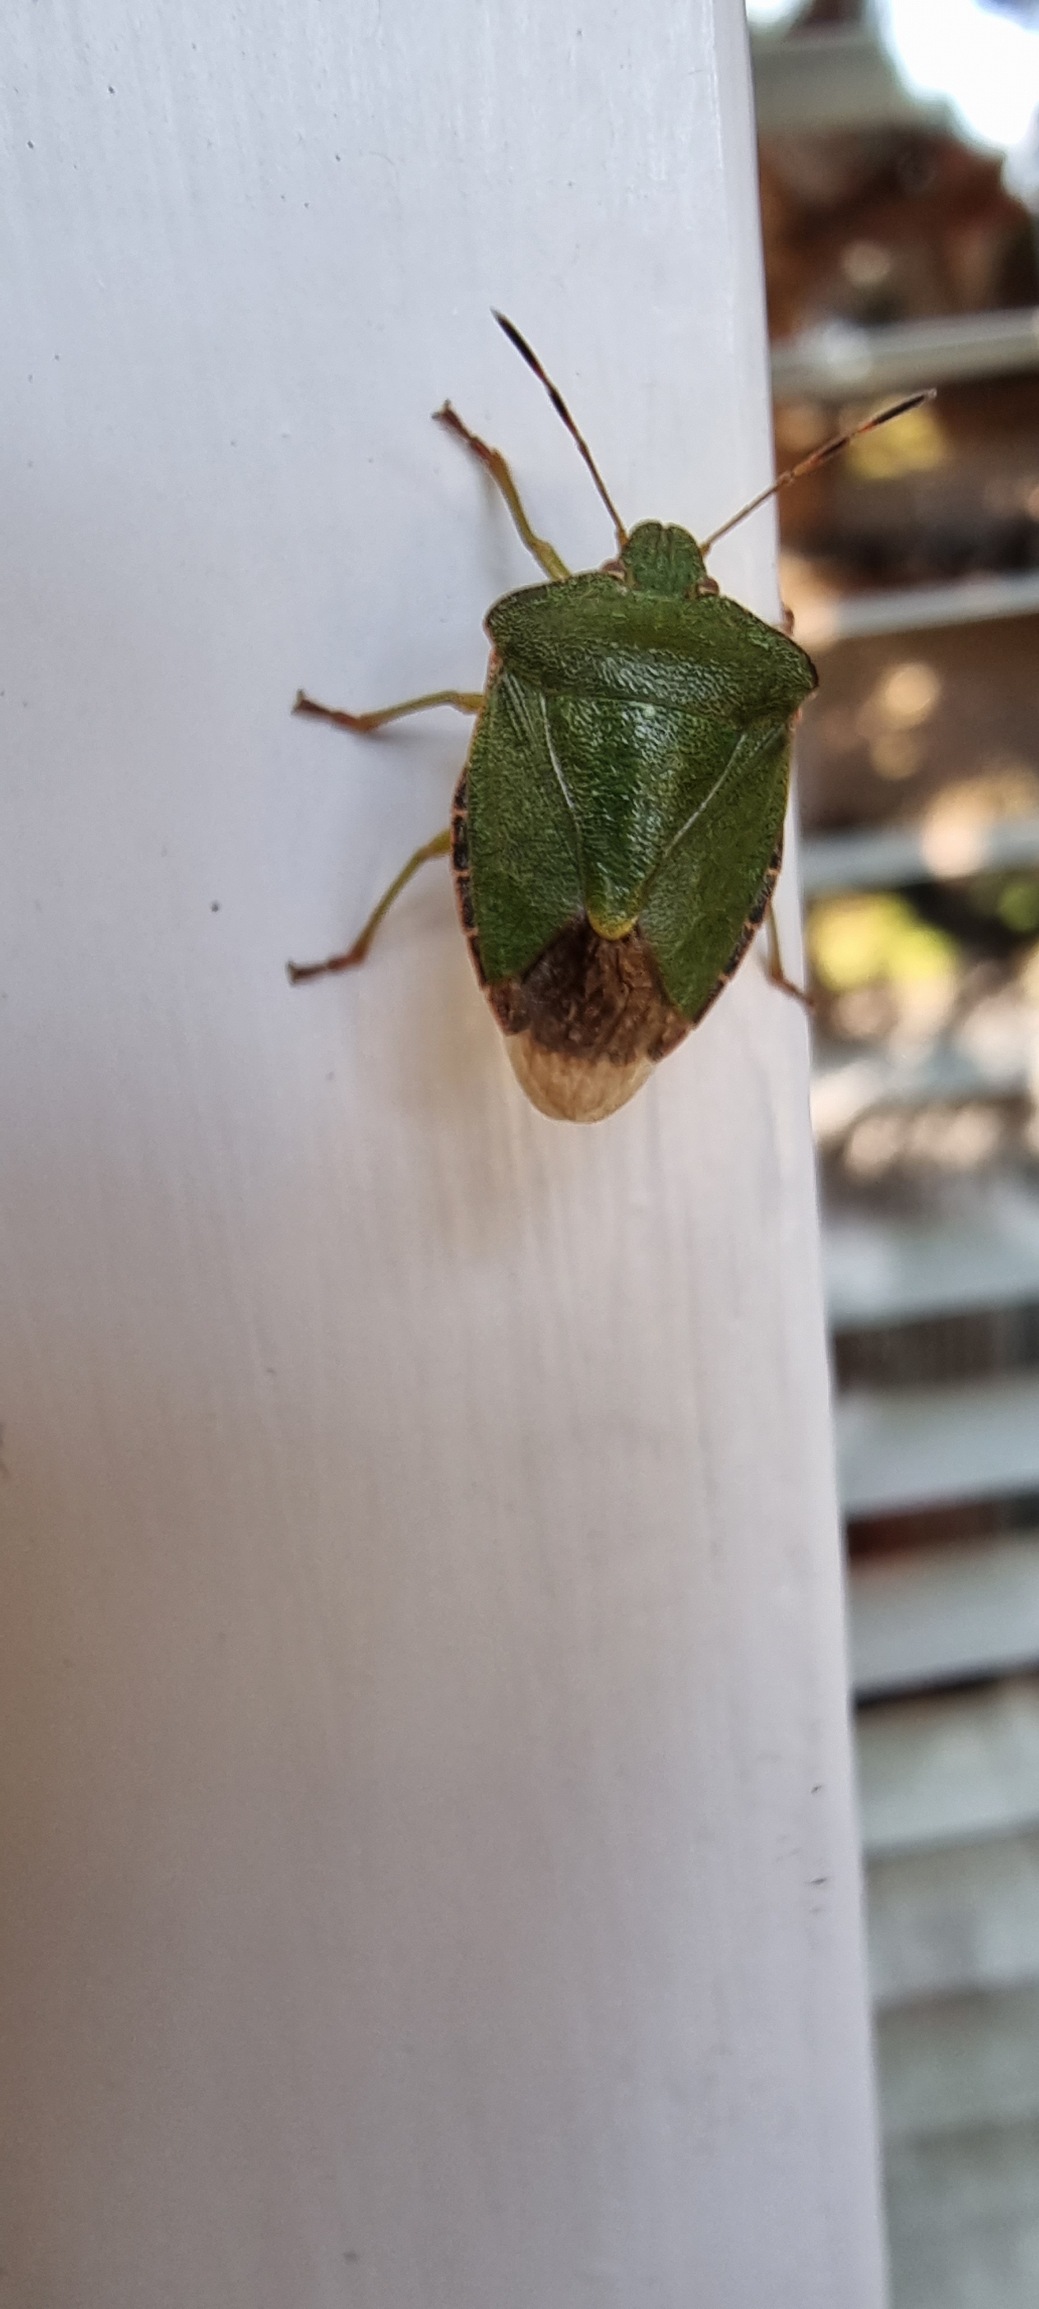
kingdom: Animalia
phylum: Arthropoda
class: Insecta
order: Hemiptera
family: Pentatomidae
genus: Palomena
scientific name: Palomena prasina
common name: Grøn bredtæge
